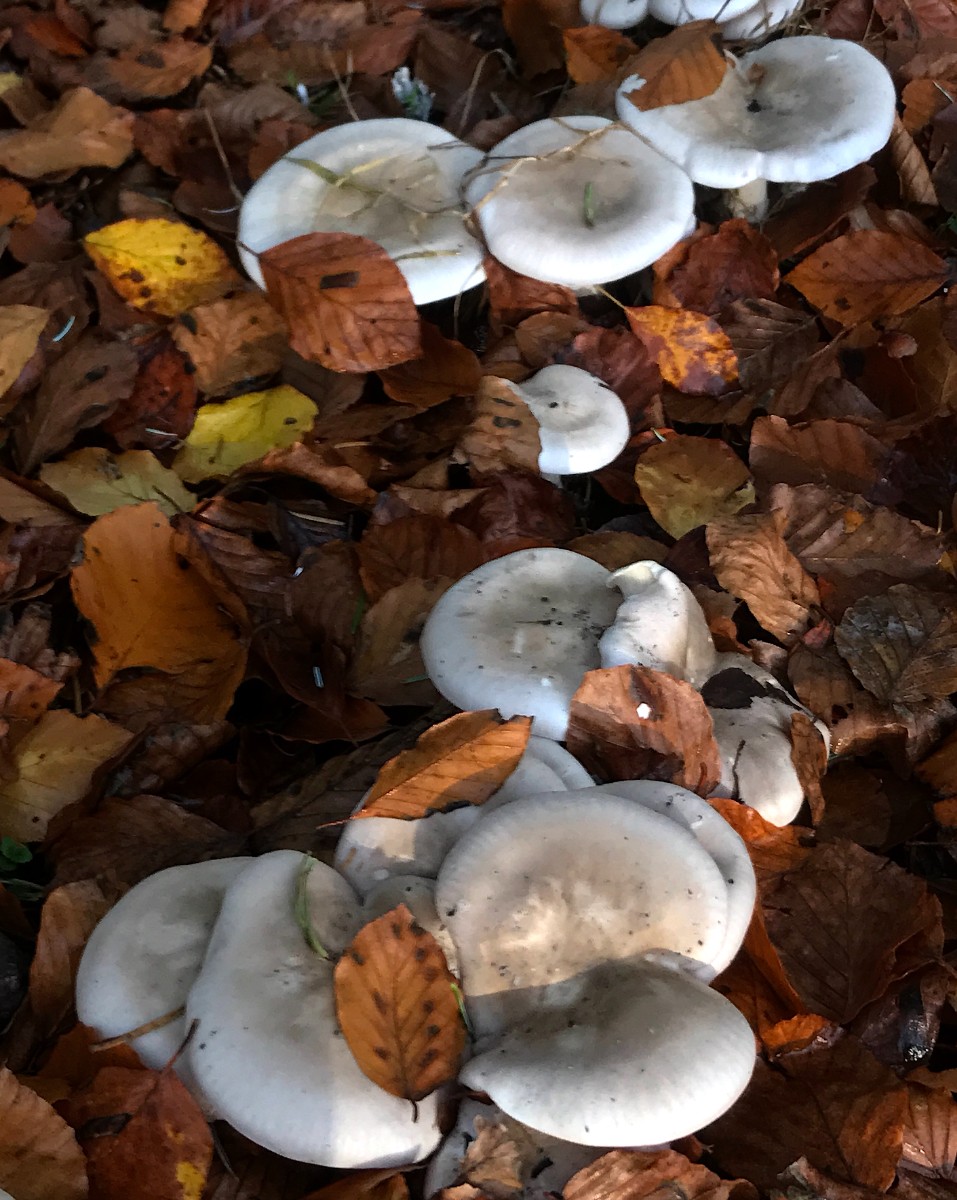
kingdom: Fungi
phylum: Basidiomycota
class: Agaricomycetes
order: Agaricales
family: Tricholomataceae
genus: Clitocybe
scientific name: Clitocybe nebularis
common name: tåge-tragthat
